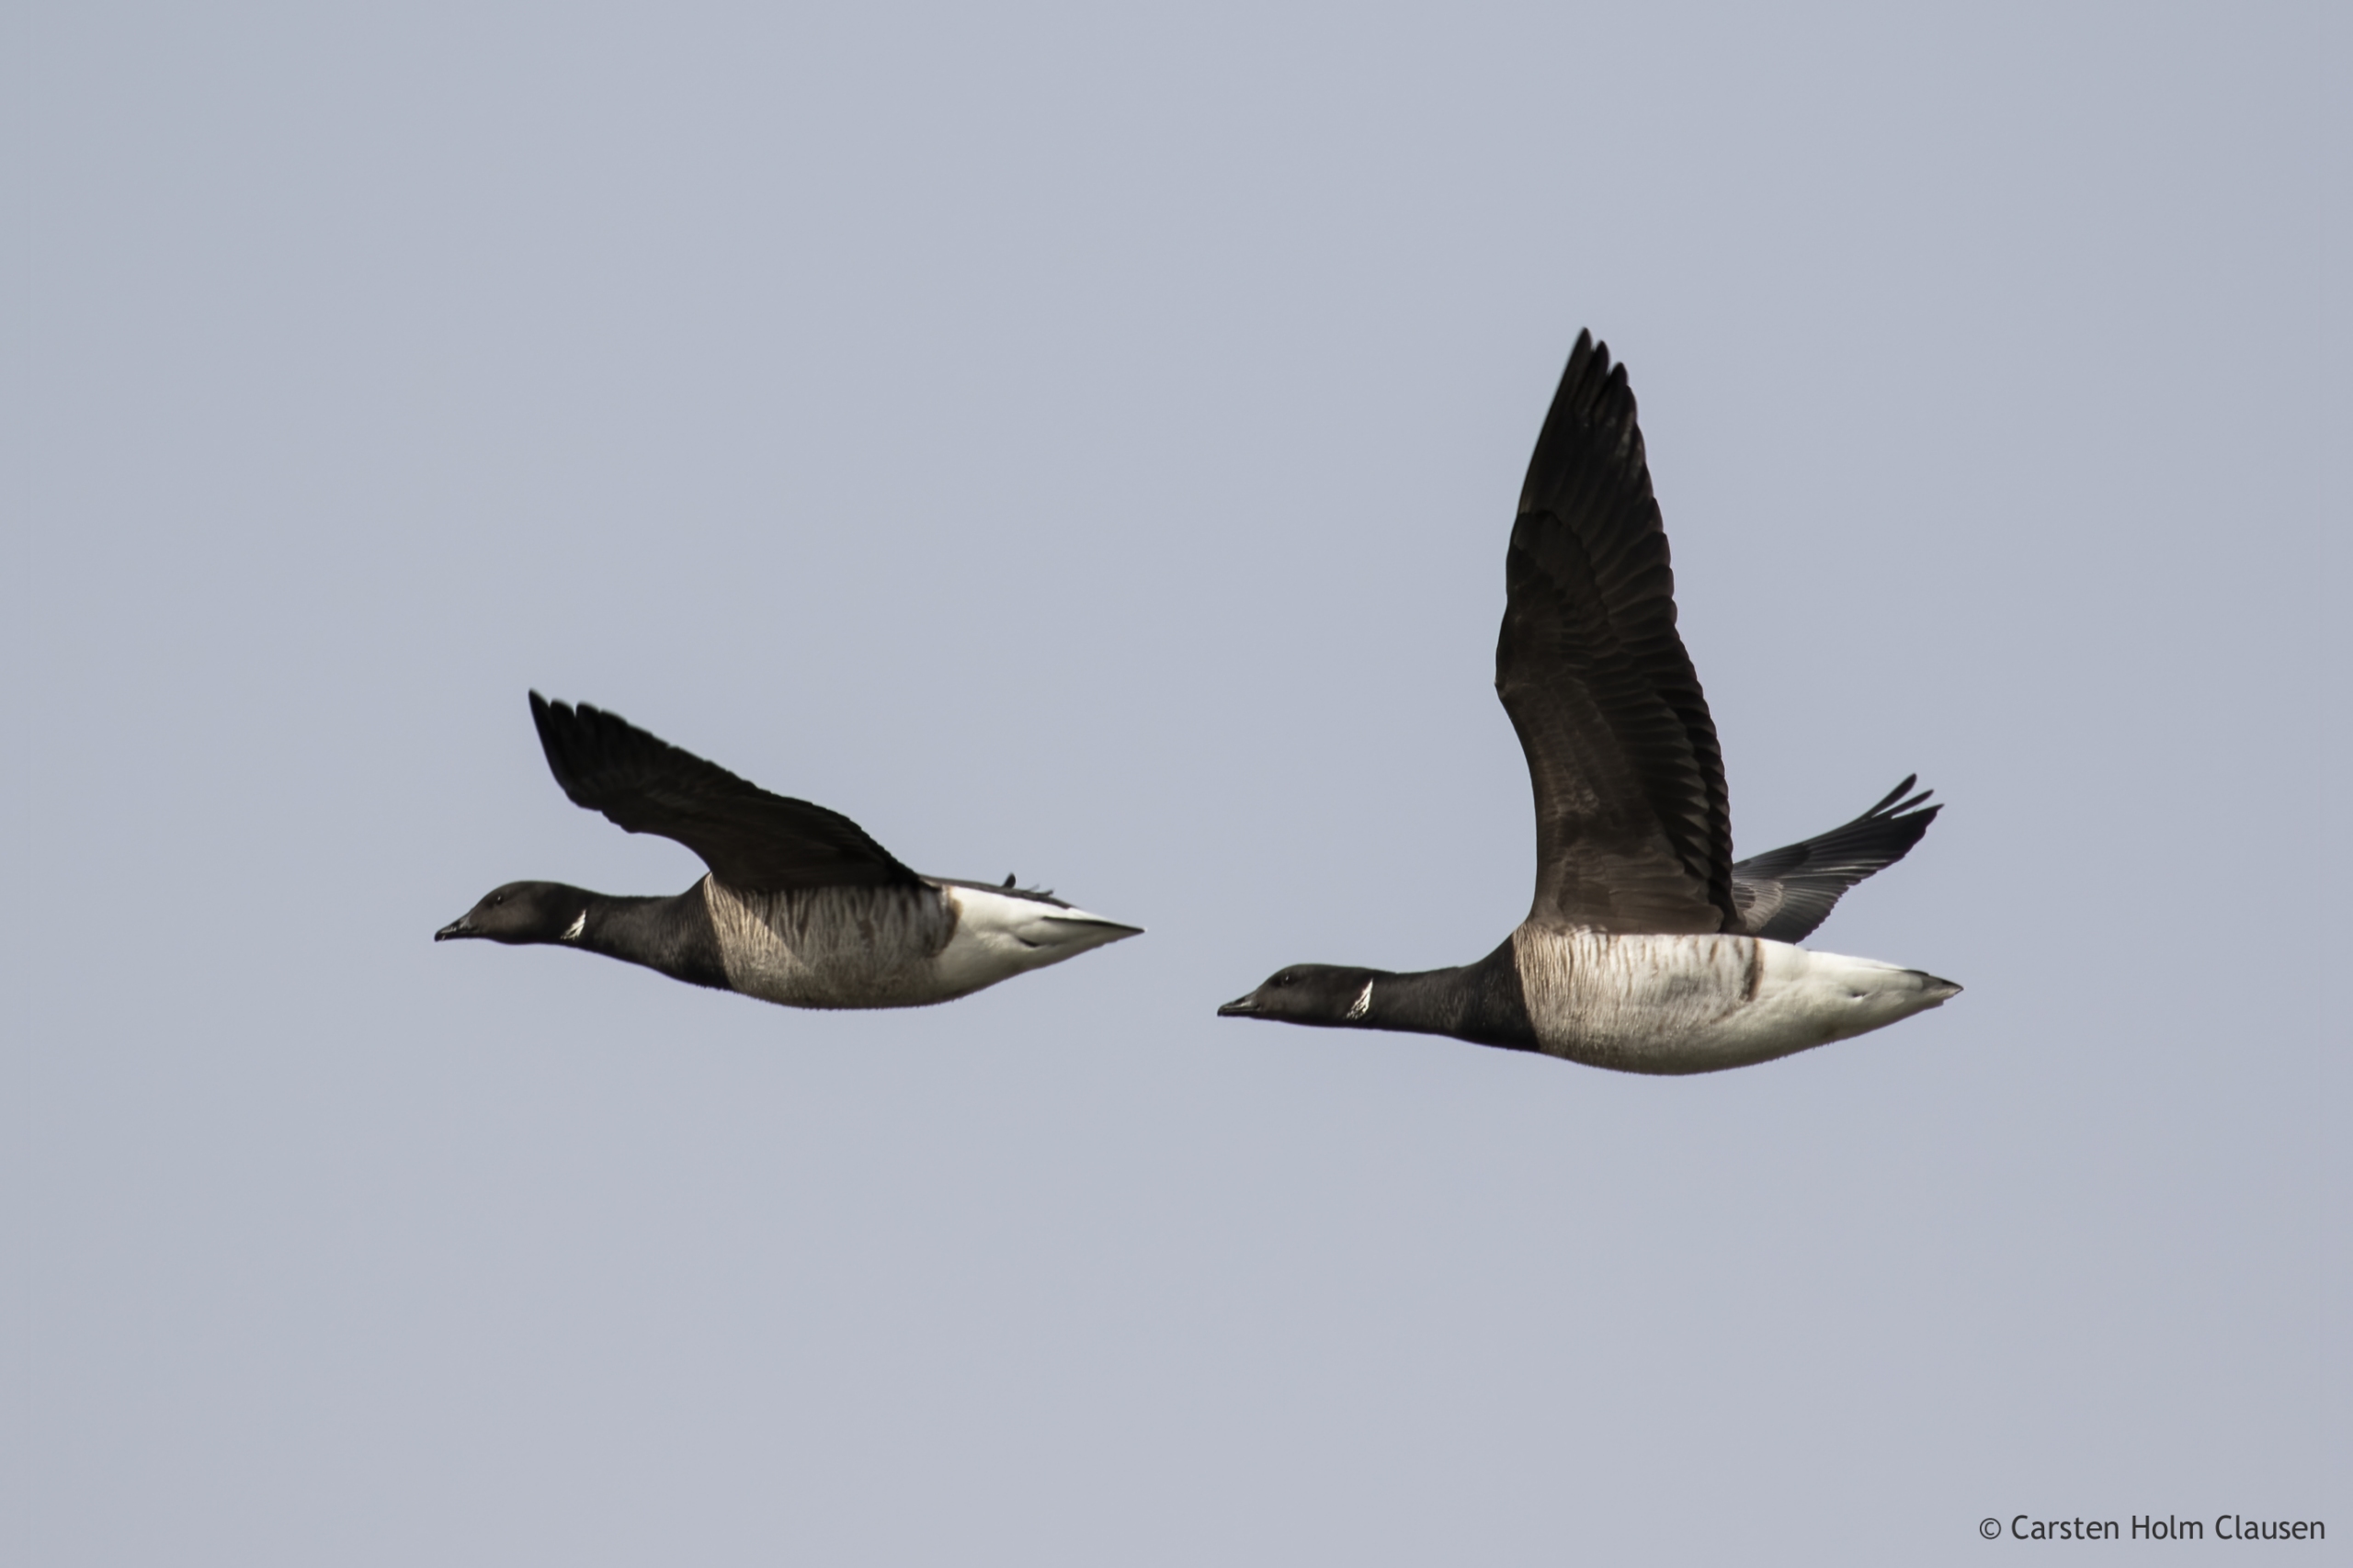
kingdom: Animalia
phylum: Chordata
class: Aves
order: Anseriformes
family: Anatidae
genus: Branta
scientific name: Branta bernicla
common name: Knortegås
